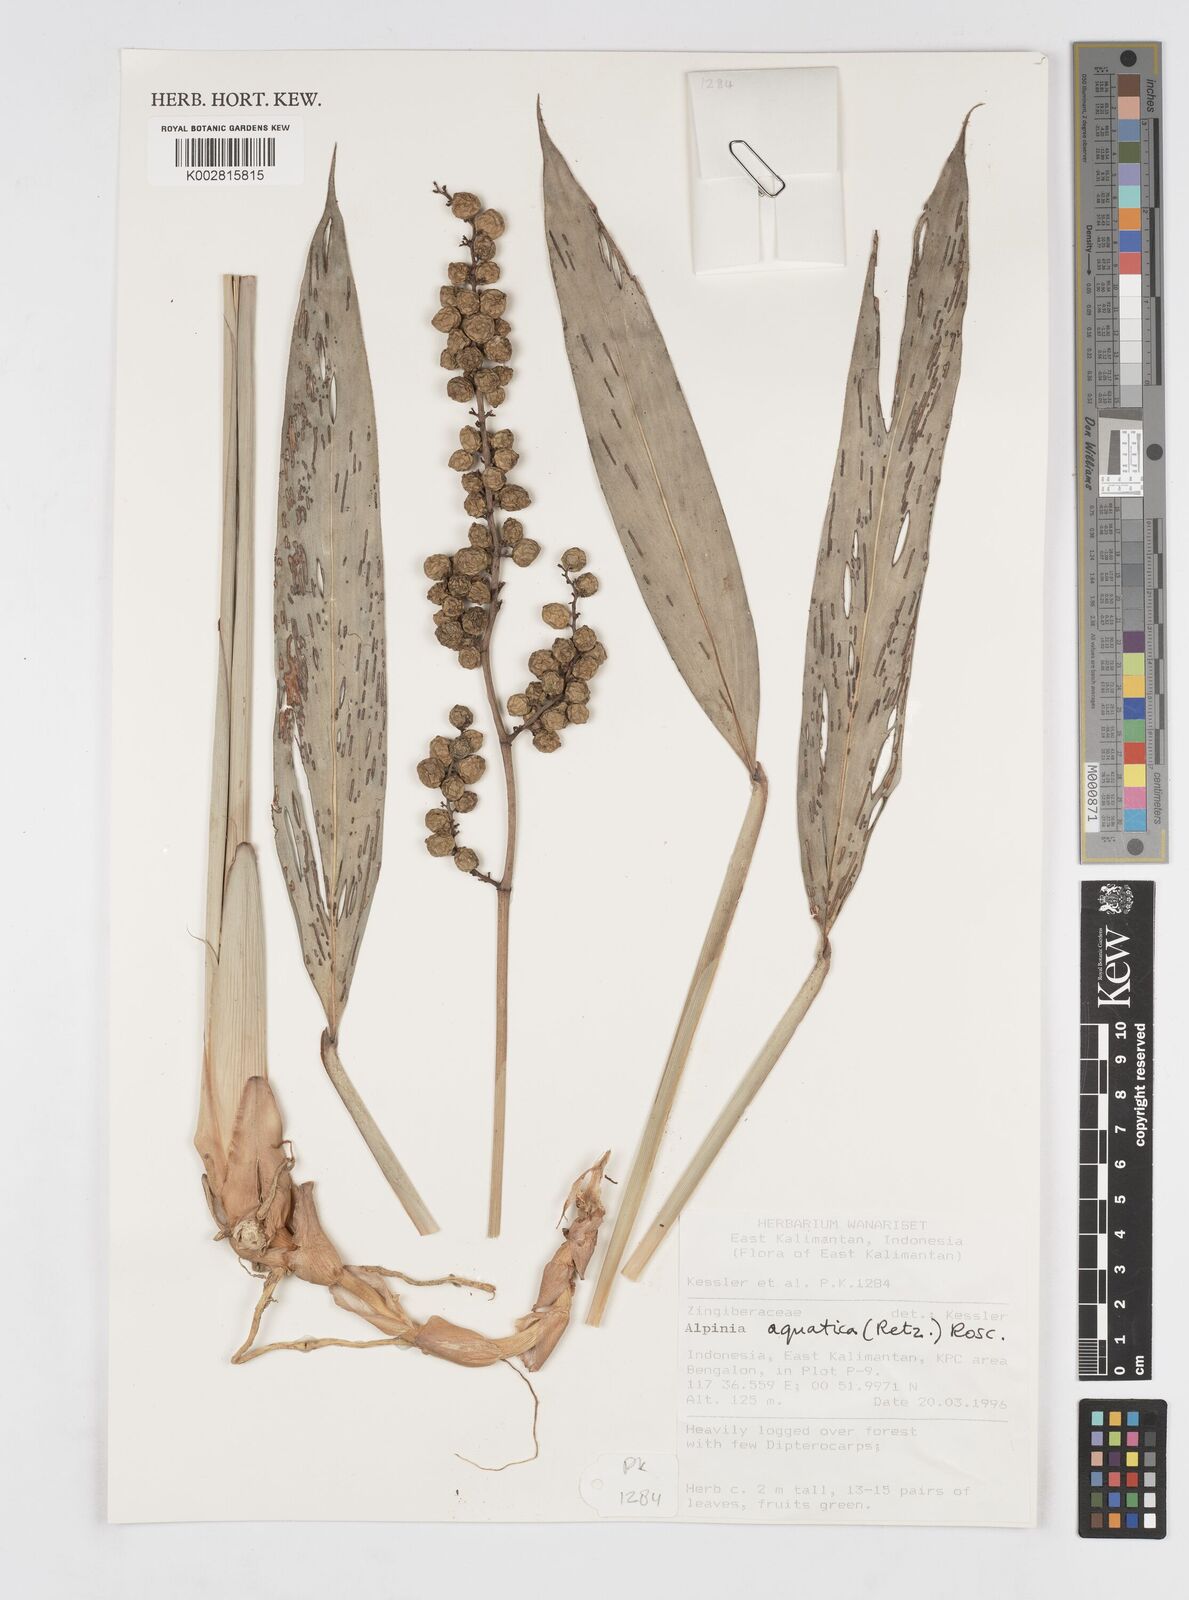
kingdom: Plantae
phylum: Tracheophyta
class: Liliopsida
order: Zingiberales
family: Zingiberaceae
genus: Alpinia
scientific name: Alpinia aquatica
